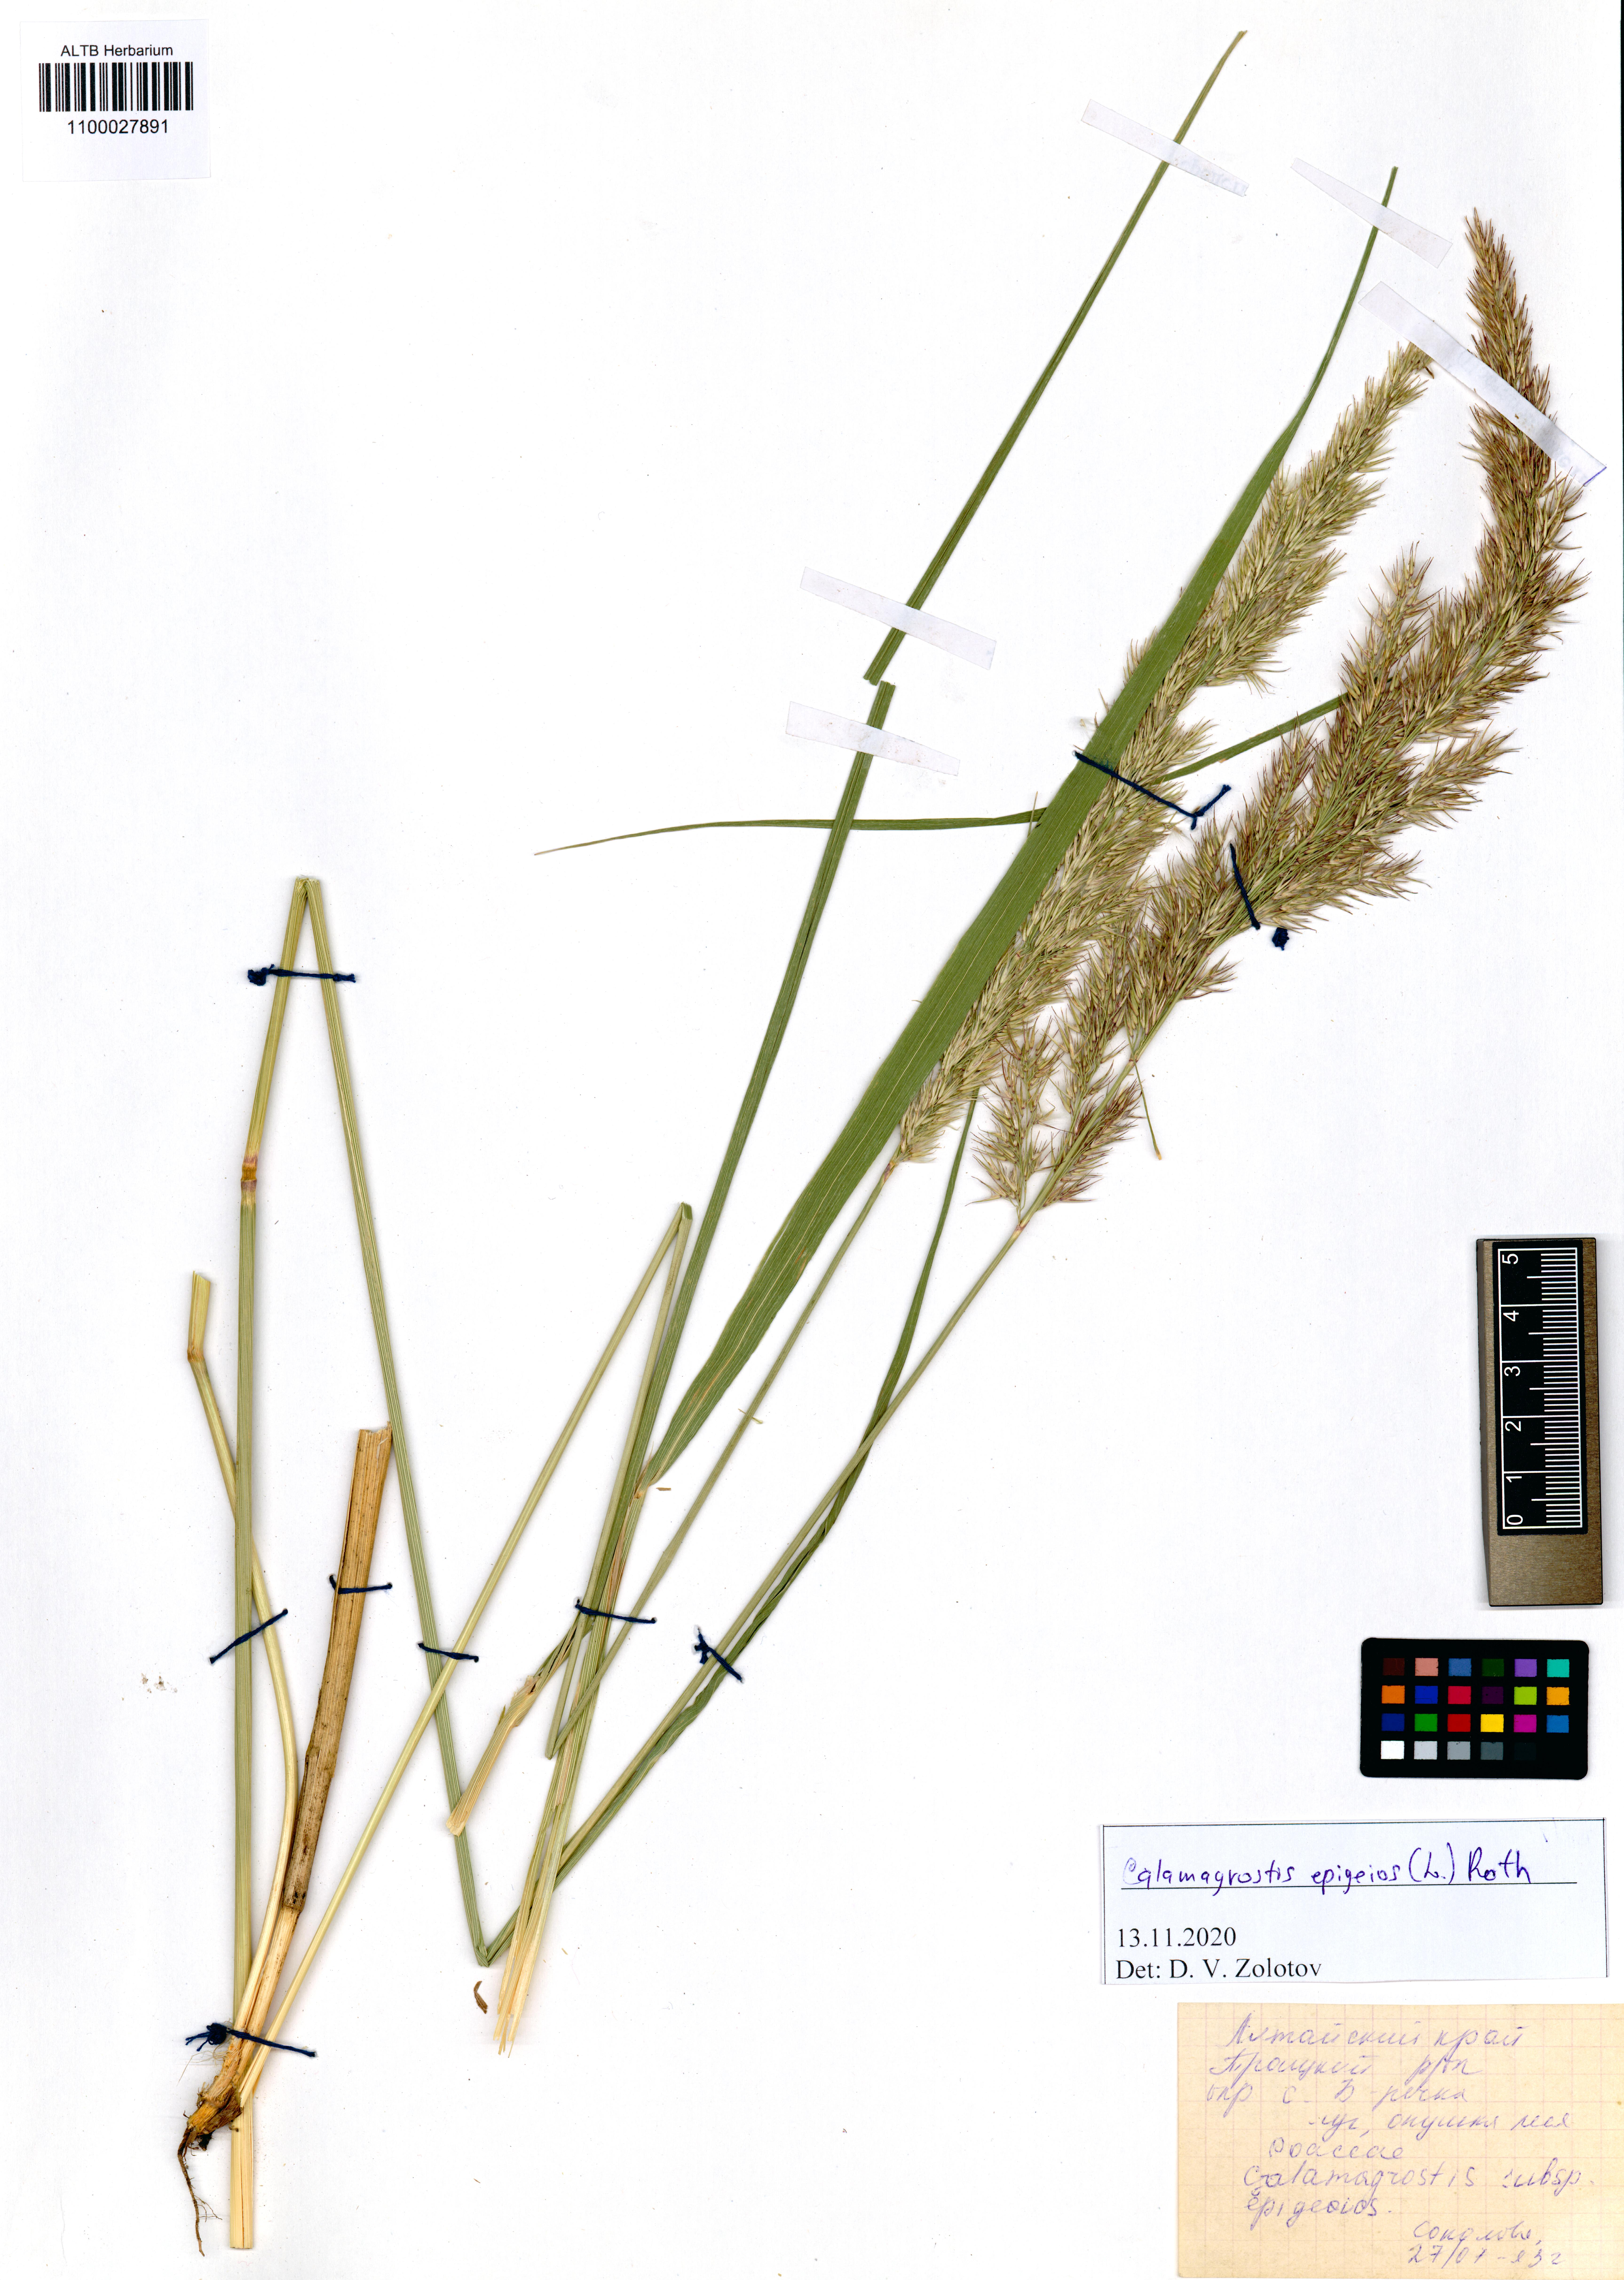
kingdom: Plantae
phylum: Tracheophyta
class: Liliopsida
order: Poales
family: Poaceae
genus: Calamagrostis
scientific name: Calamagrostis epigejos
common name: Wood small-reed
